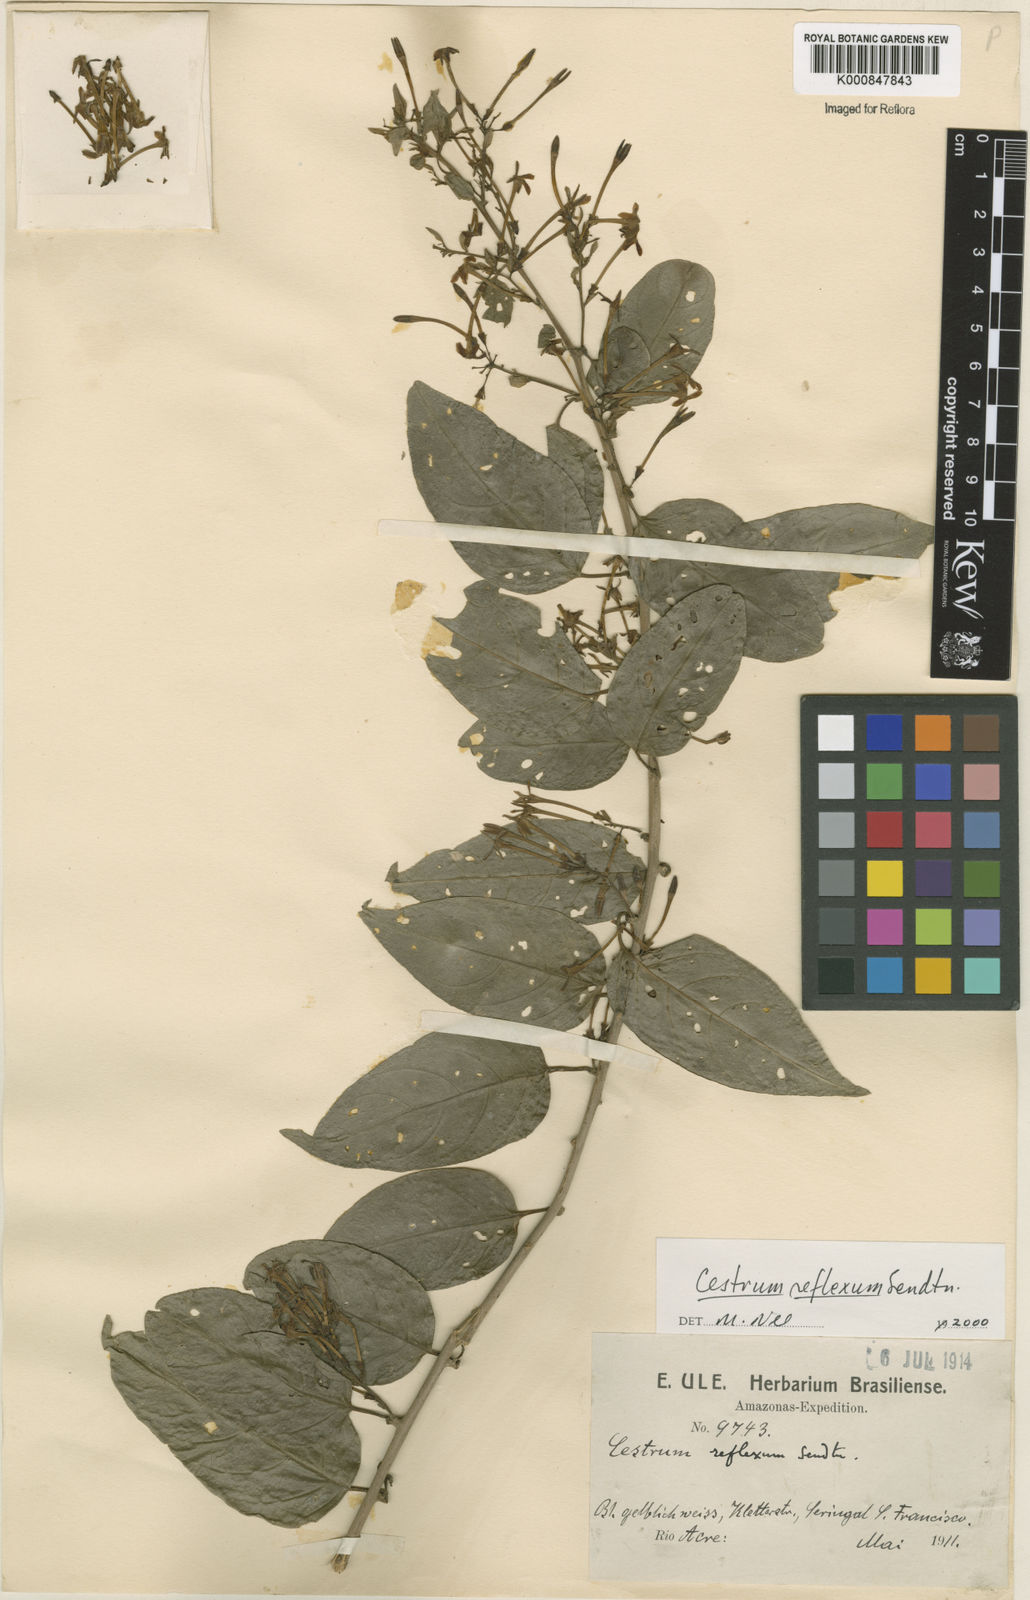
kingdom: Plantae
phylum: Tracheophyta
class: Magnoliopsida
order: Solanales
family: Solanaceae
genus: Cestrum
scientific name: Cestrum reflexum
